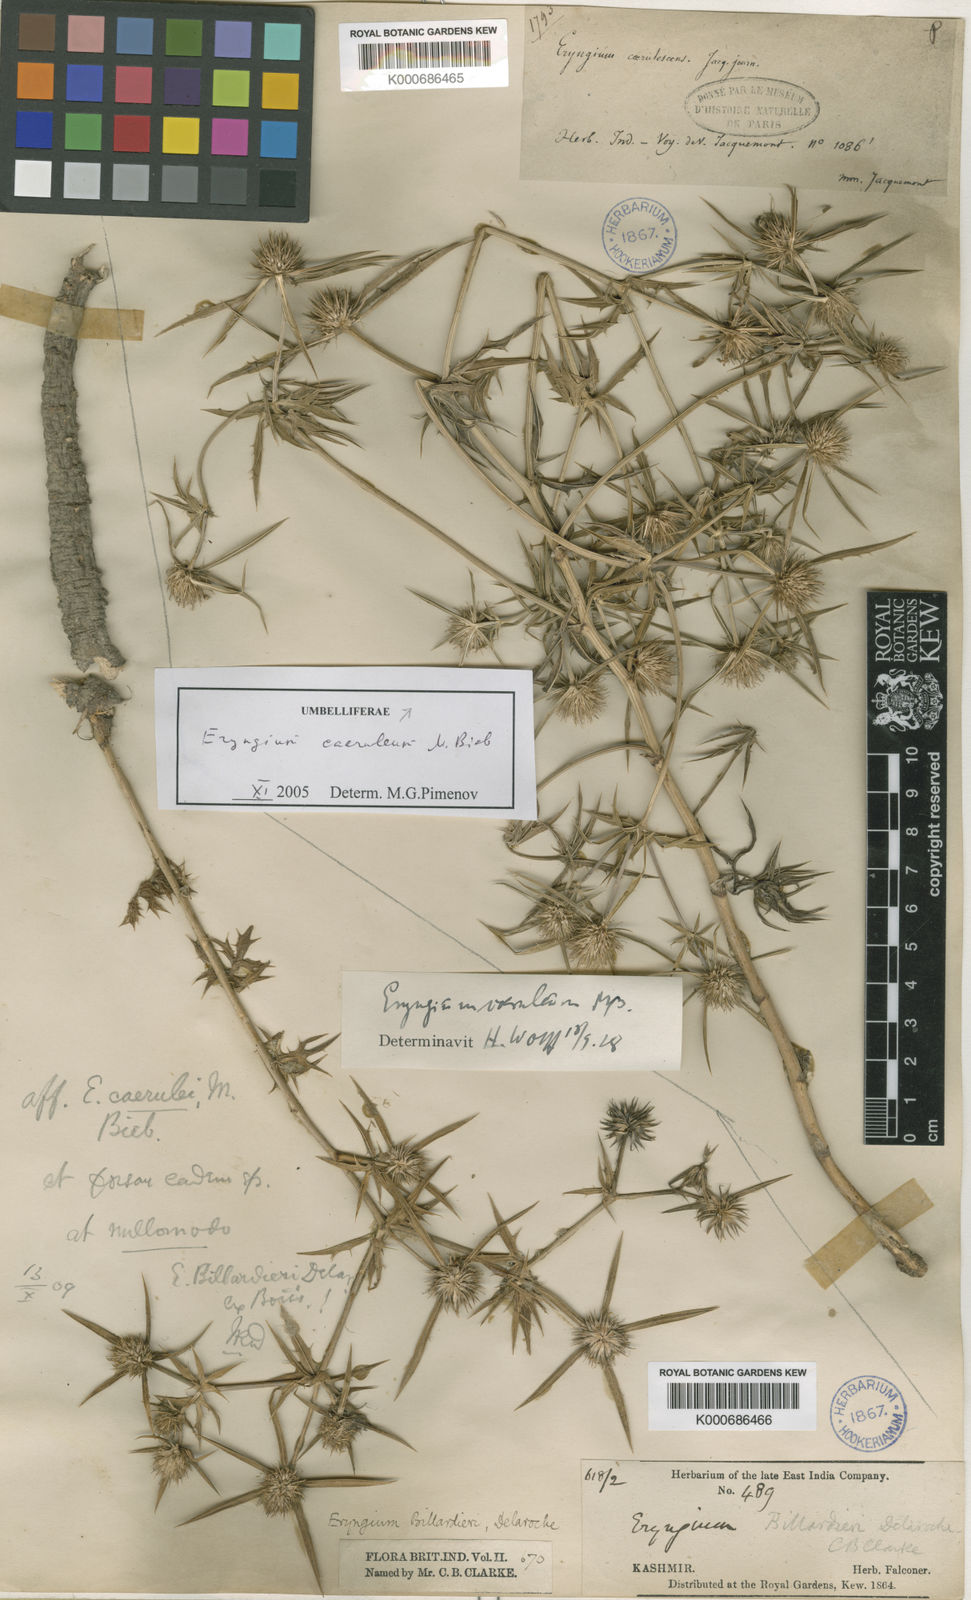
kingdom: Plantae
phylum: Tracheophyta
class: Magnoliopsida
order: Apiales
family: Apiaceae
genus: Eryngium
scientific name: Eryngium caeruleum
